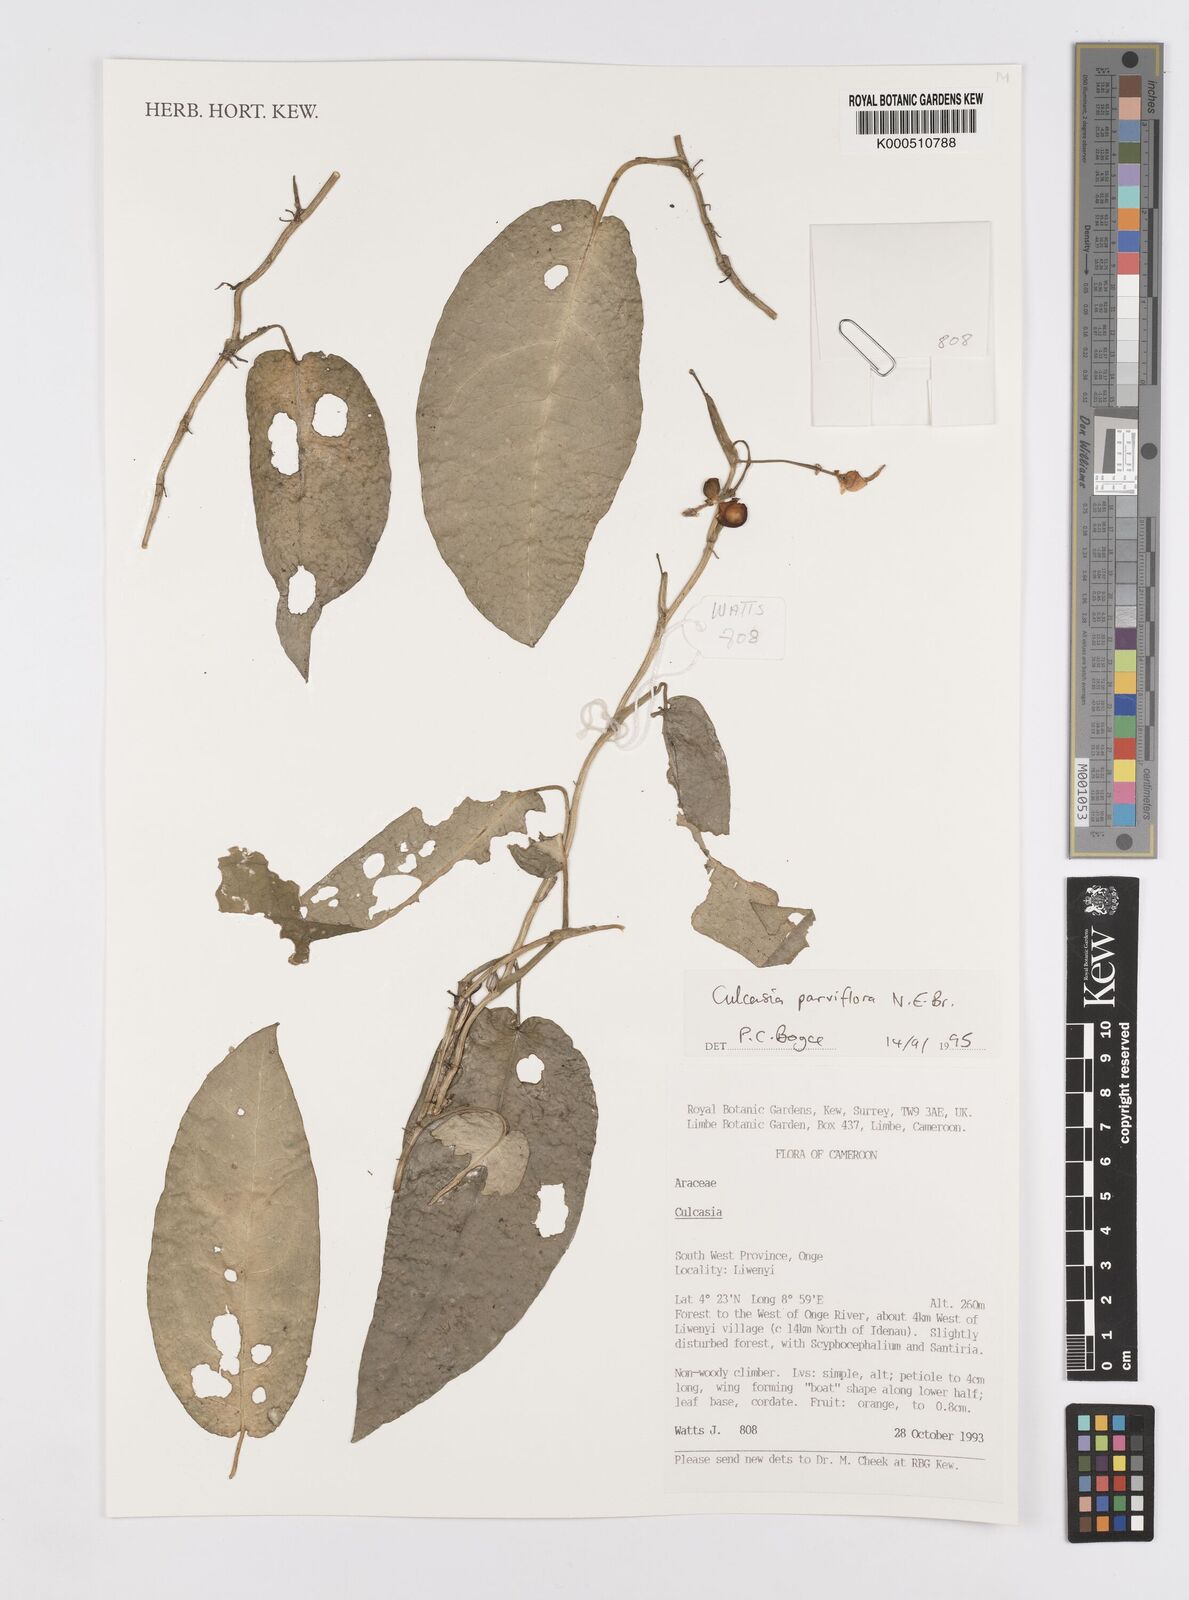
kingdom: Plantae
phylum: Tracheophyta
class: Liliopsida
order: Alismatales
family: Araceae
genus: Culcasia
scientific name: Culcasia parviflora
